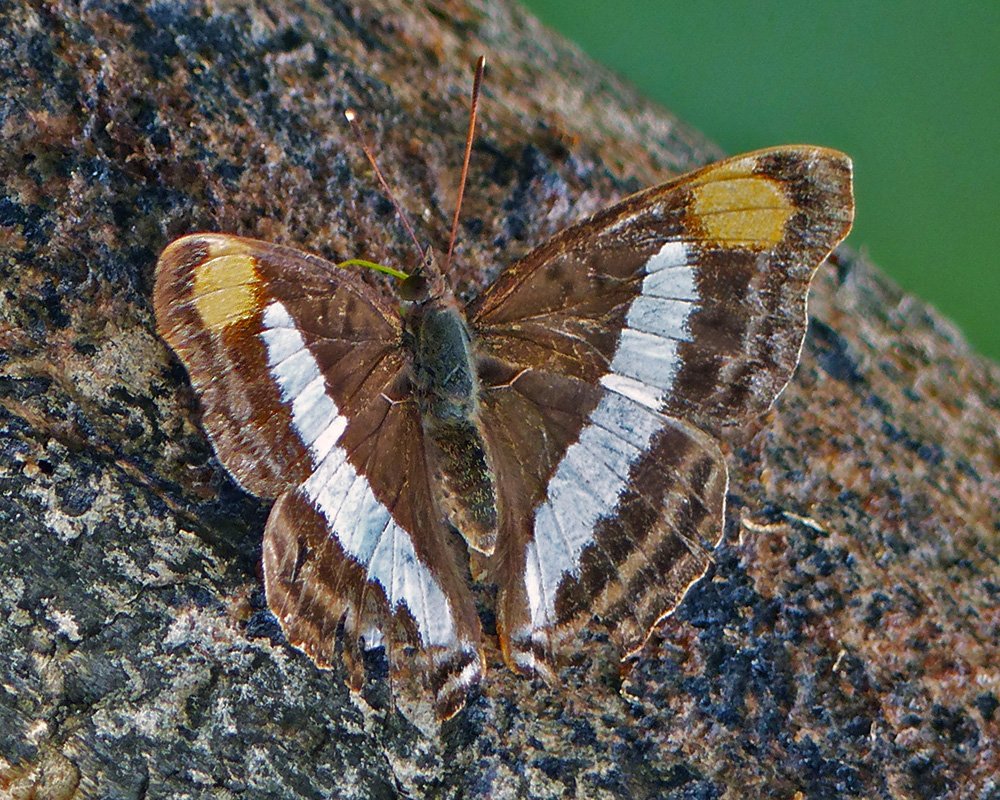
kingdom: Animalia
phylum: Arthropoda
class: Insecta
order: Lepidoptera
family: Nymphalidae
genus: Doxocopa
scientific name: Doxocopa pavon
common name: Pavon Emperor
